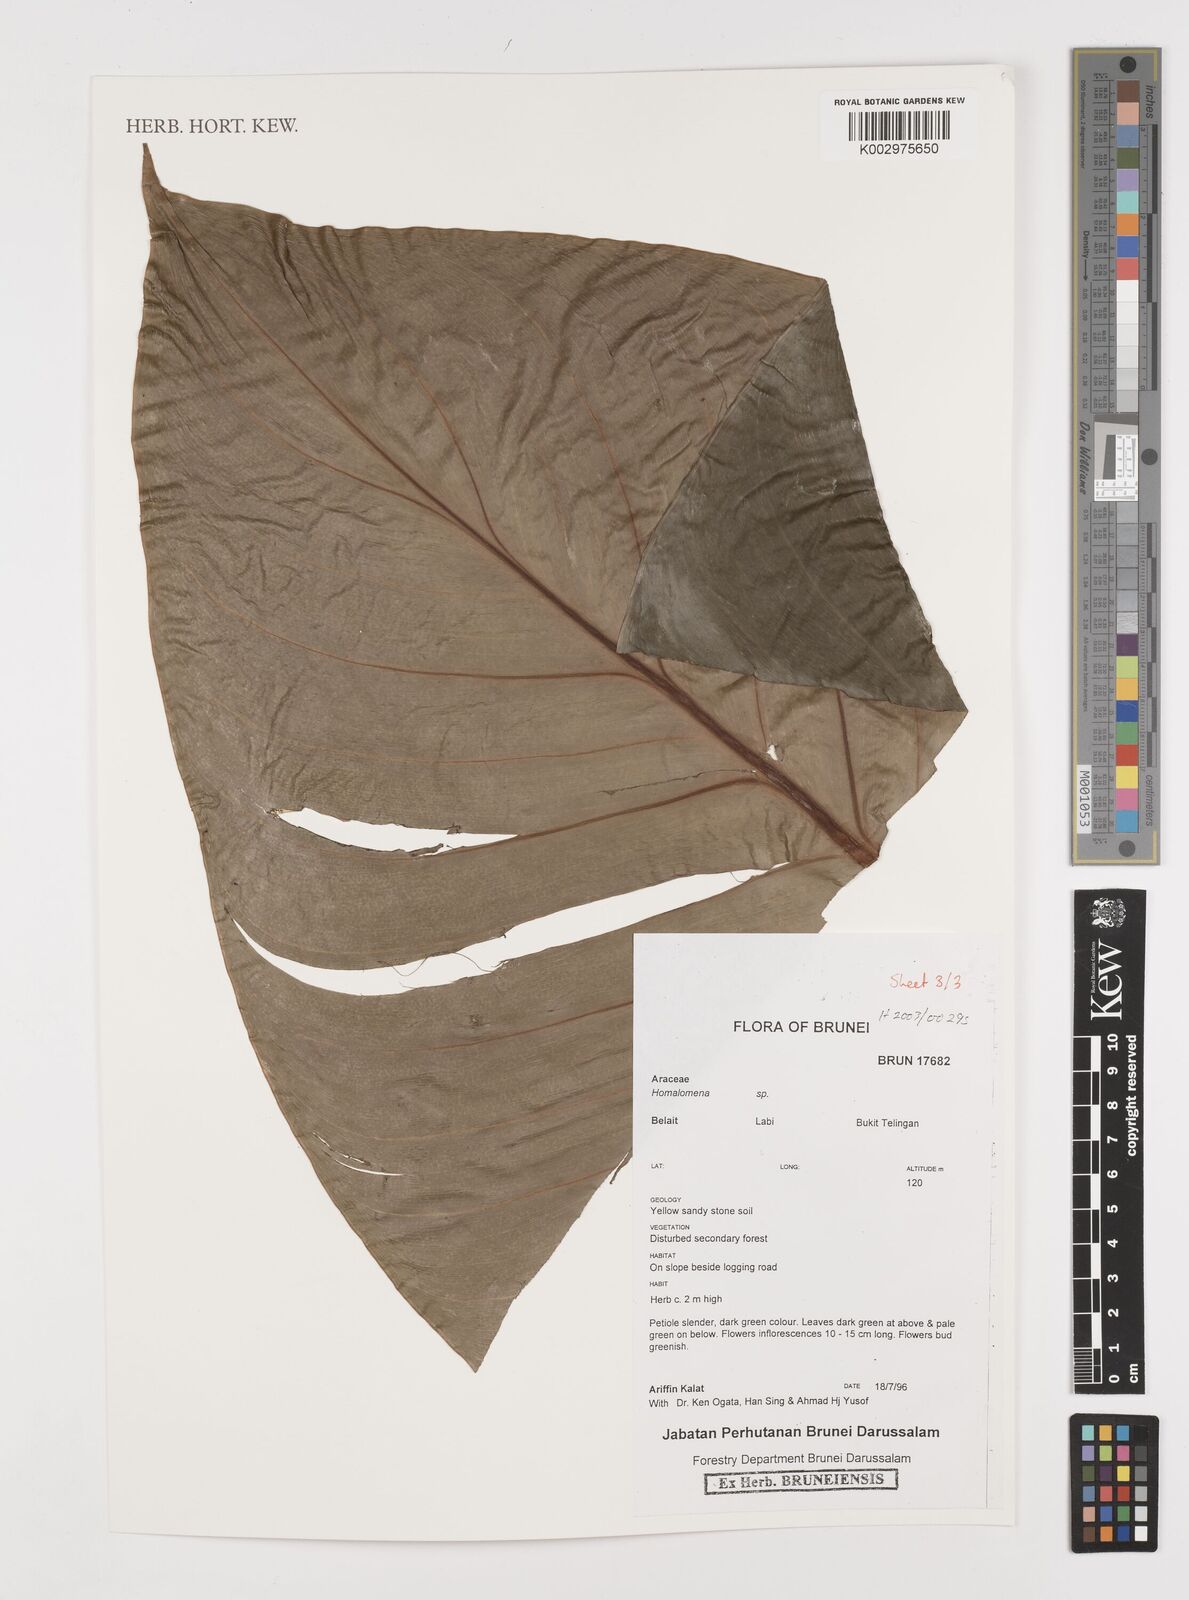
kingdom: Plantae
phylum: Tracheophyta
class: Liliopsida
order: Alismatales
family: Araceae
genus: Homalomena
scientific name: Homalomena
